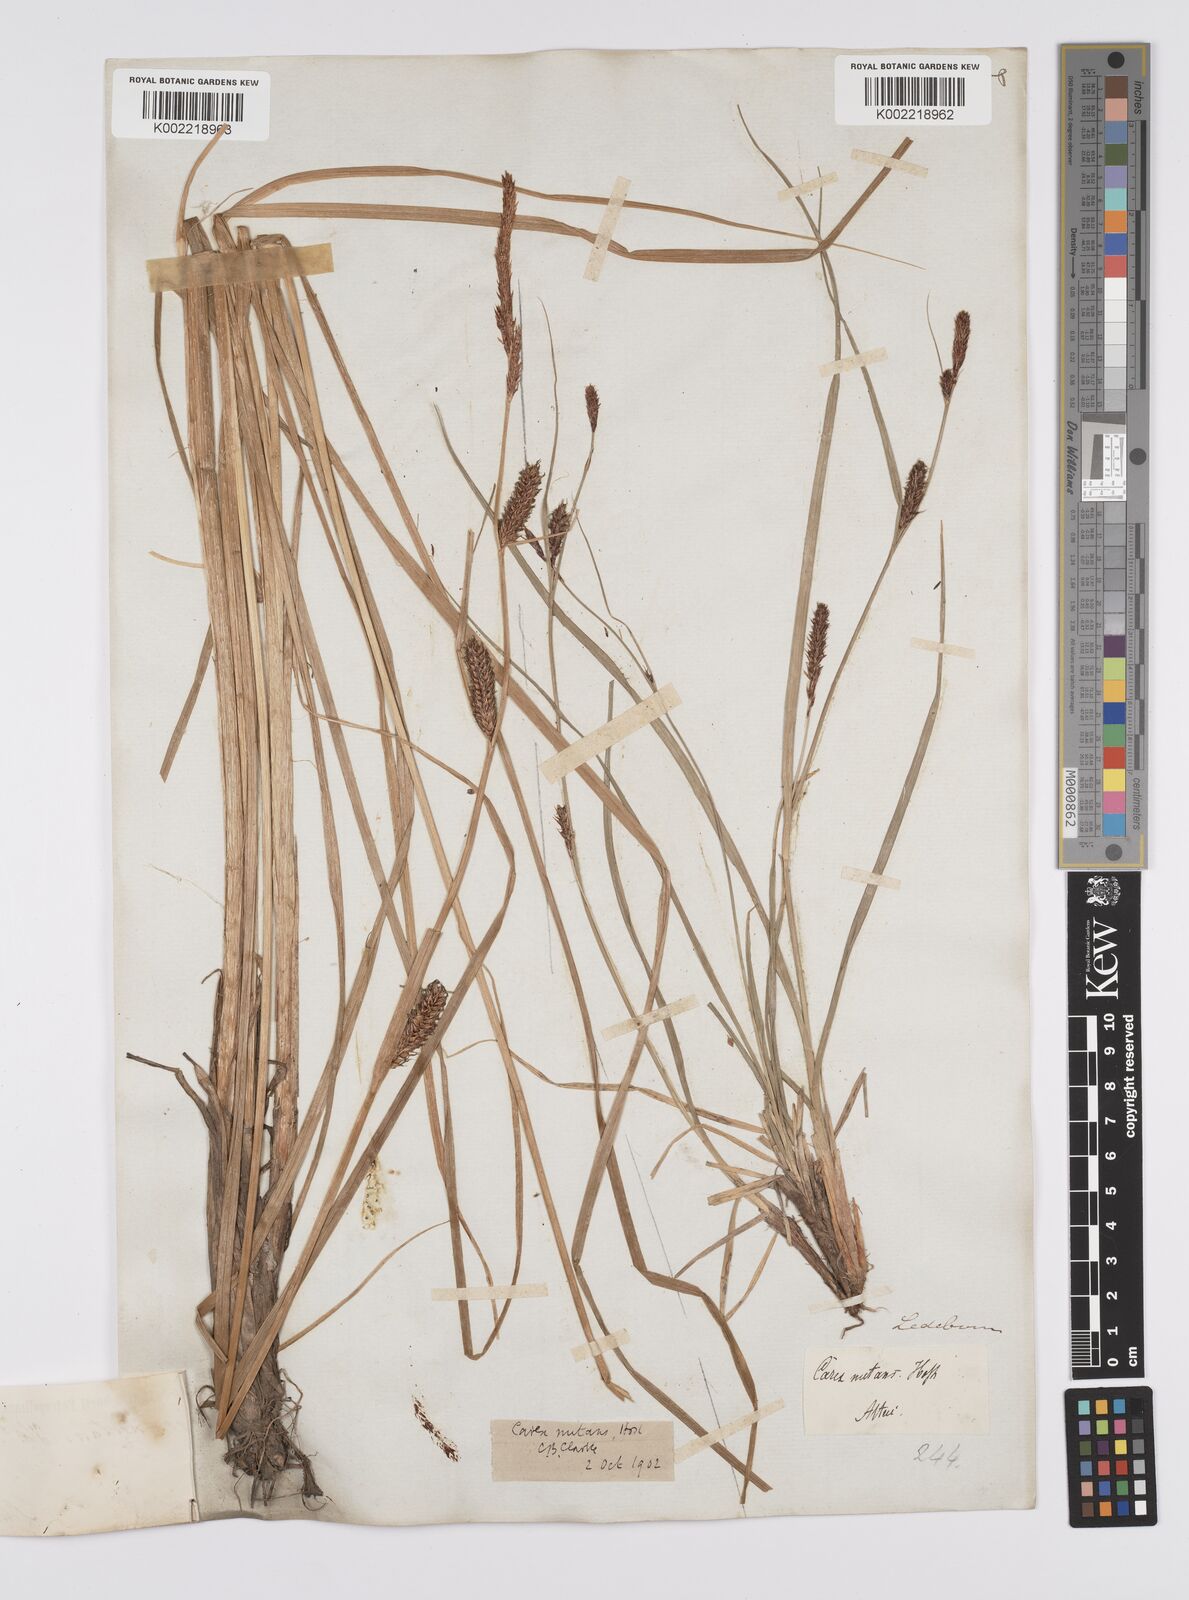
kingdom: Plantae
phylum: Tracheophyta
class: Liliopsida
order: Poales
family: Cyperaceae
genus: Carex
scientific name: Carex melanostachya
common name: Black-spiked sedge
